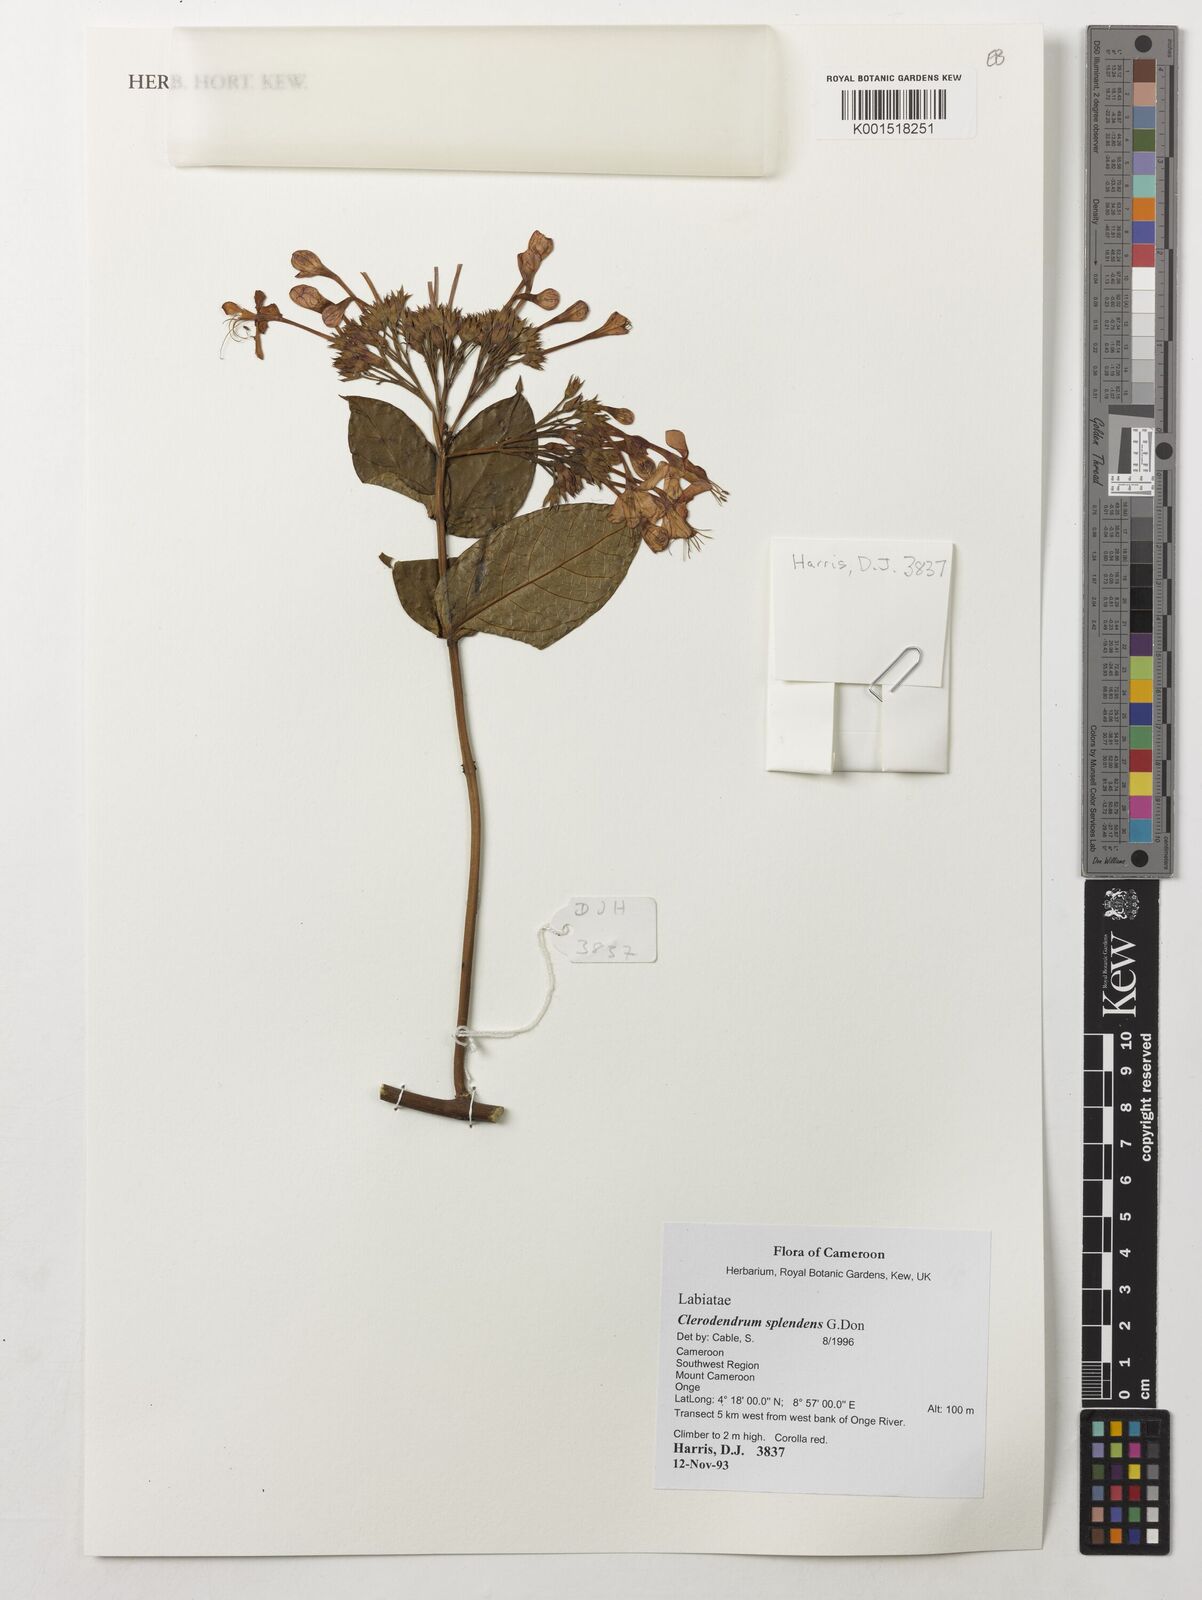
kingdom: Plantae
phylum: Tracheophyta
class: Magnoliopsida
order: Lamiales
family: Lamiaceae
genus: Clerodendrum
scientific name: Clerodendrum splendens
